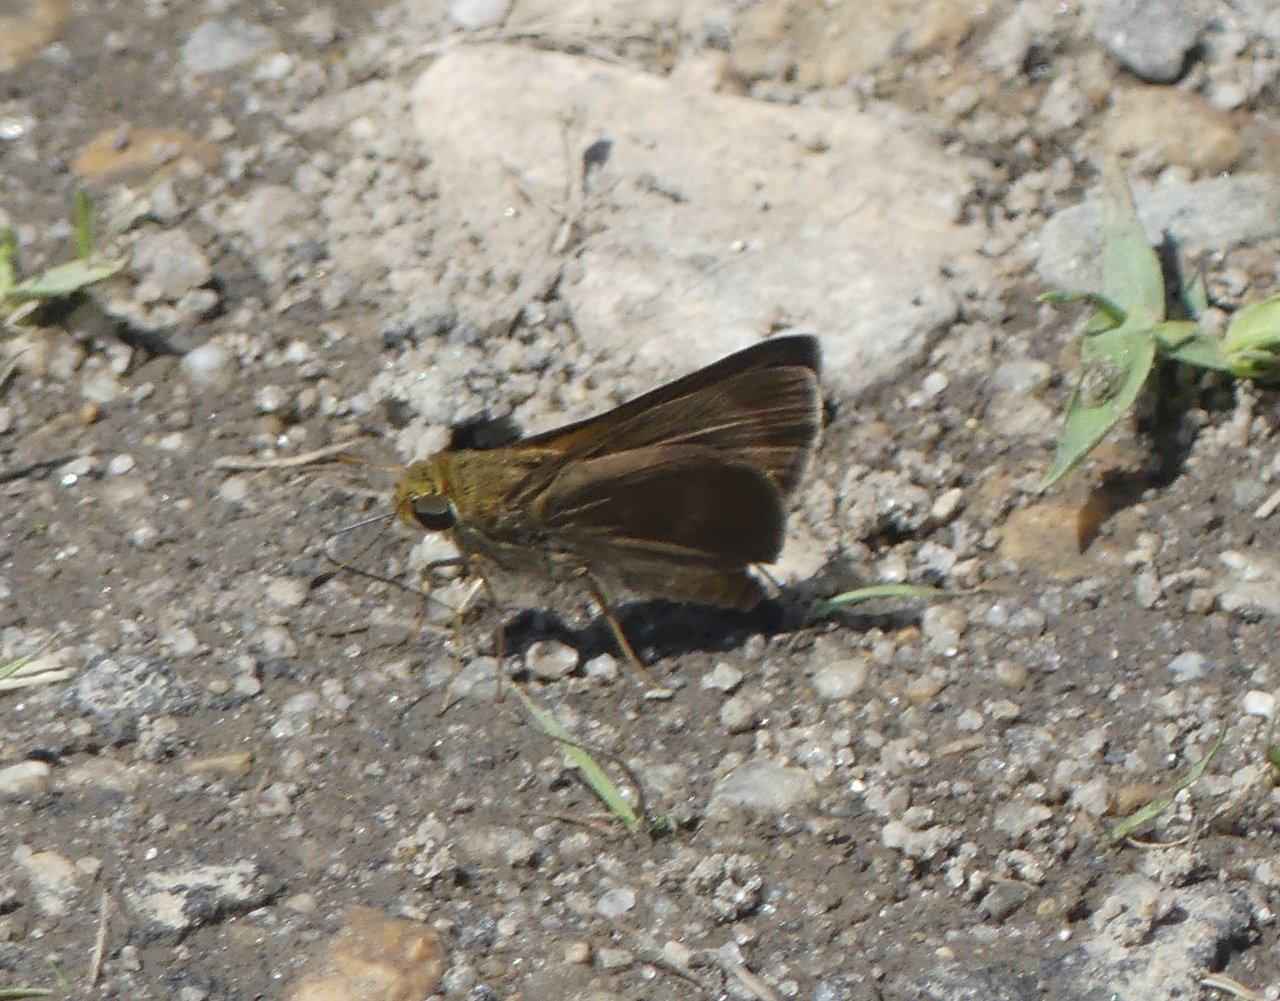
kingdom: Animalia
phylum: Arthropoda
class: Insecta
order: Lepidoptera
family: Hesperiidae
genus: Euphyes
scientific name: Euphyes vestris
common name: Dun Skipper
